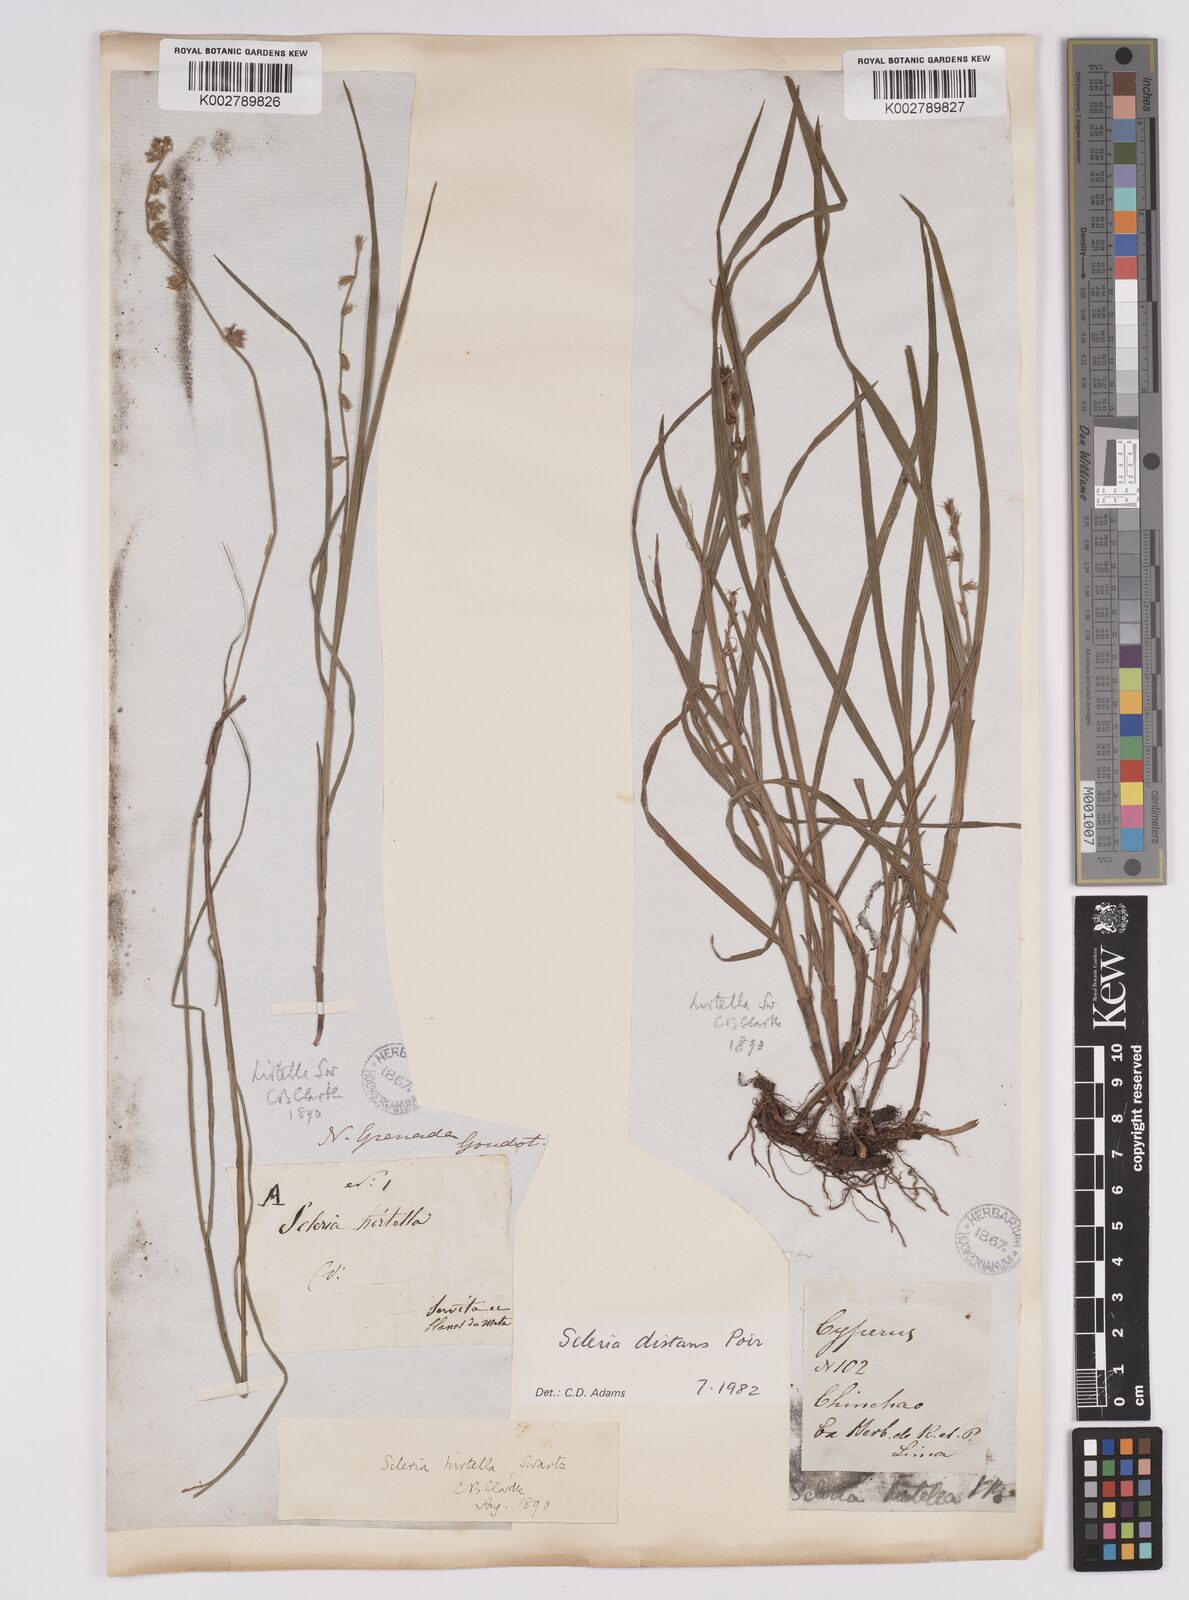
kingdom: Plantae
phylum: Tracheophyta
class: Liliopsida
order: Poales
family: Cyperaceae
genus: Scleria
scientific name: Scleria distans
